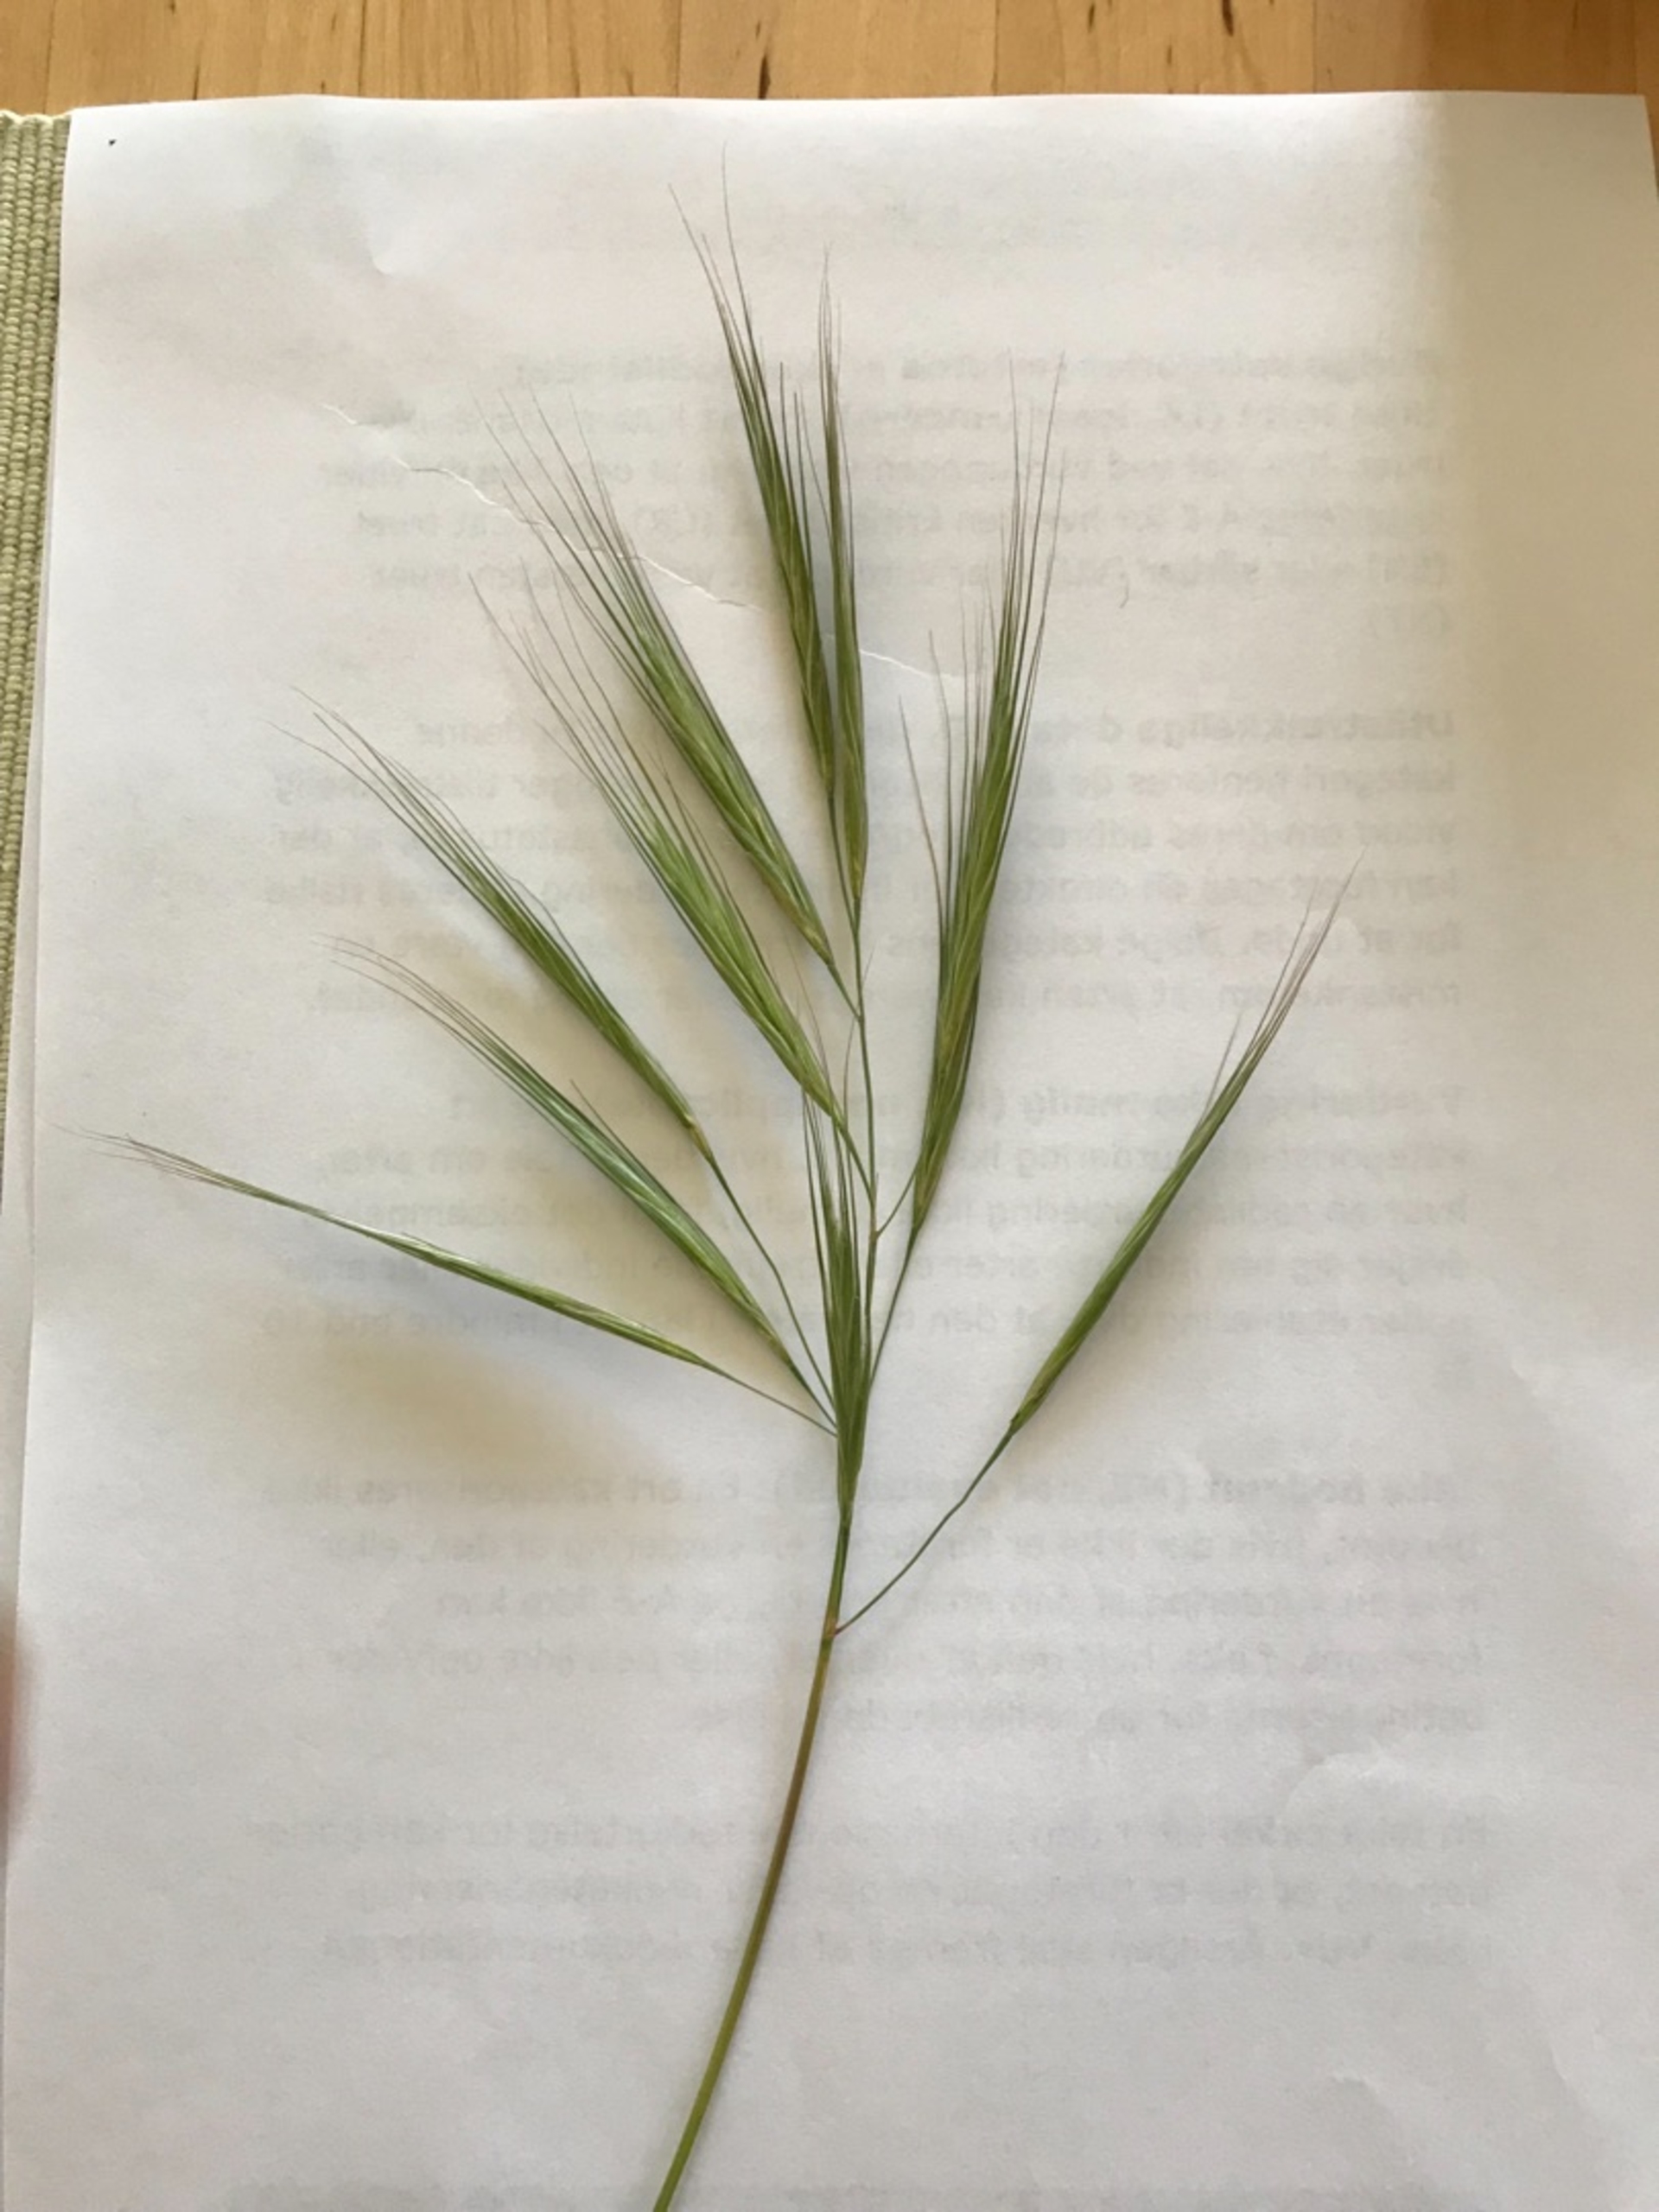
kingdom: Plantae
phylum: Tracheophyta
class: Liliopsida
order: Poales
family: Poaceae
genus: Bromus
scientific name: Bromus diandrus
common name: Storakset hejre
